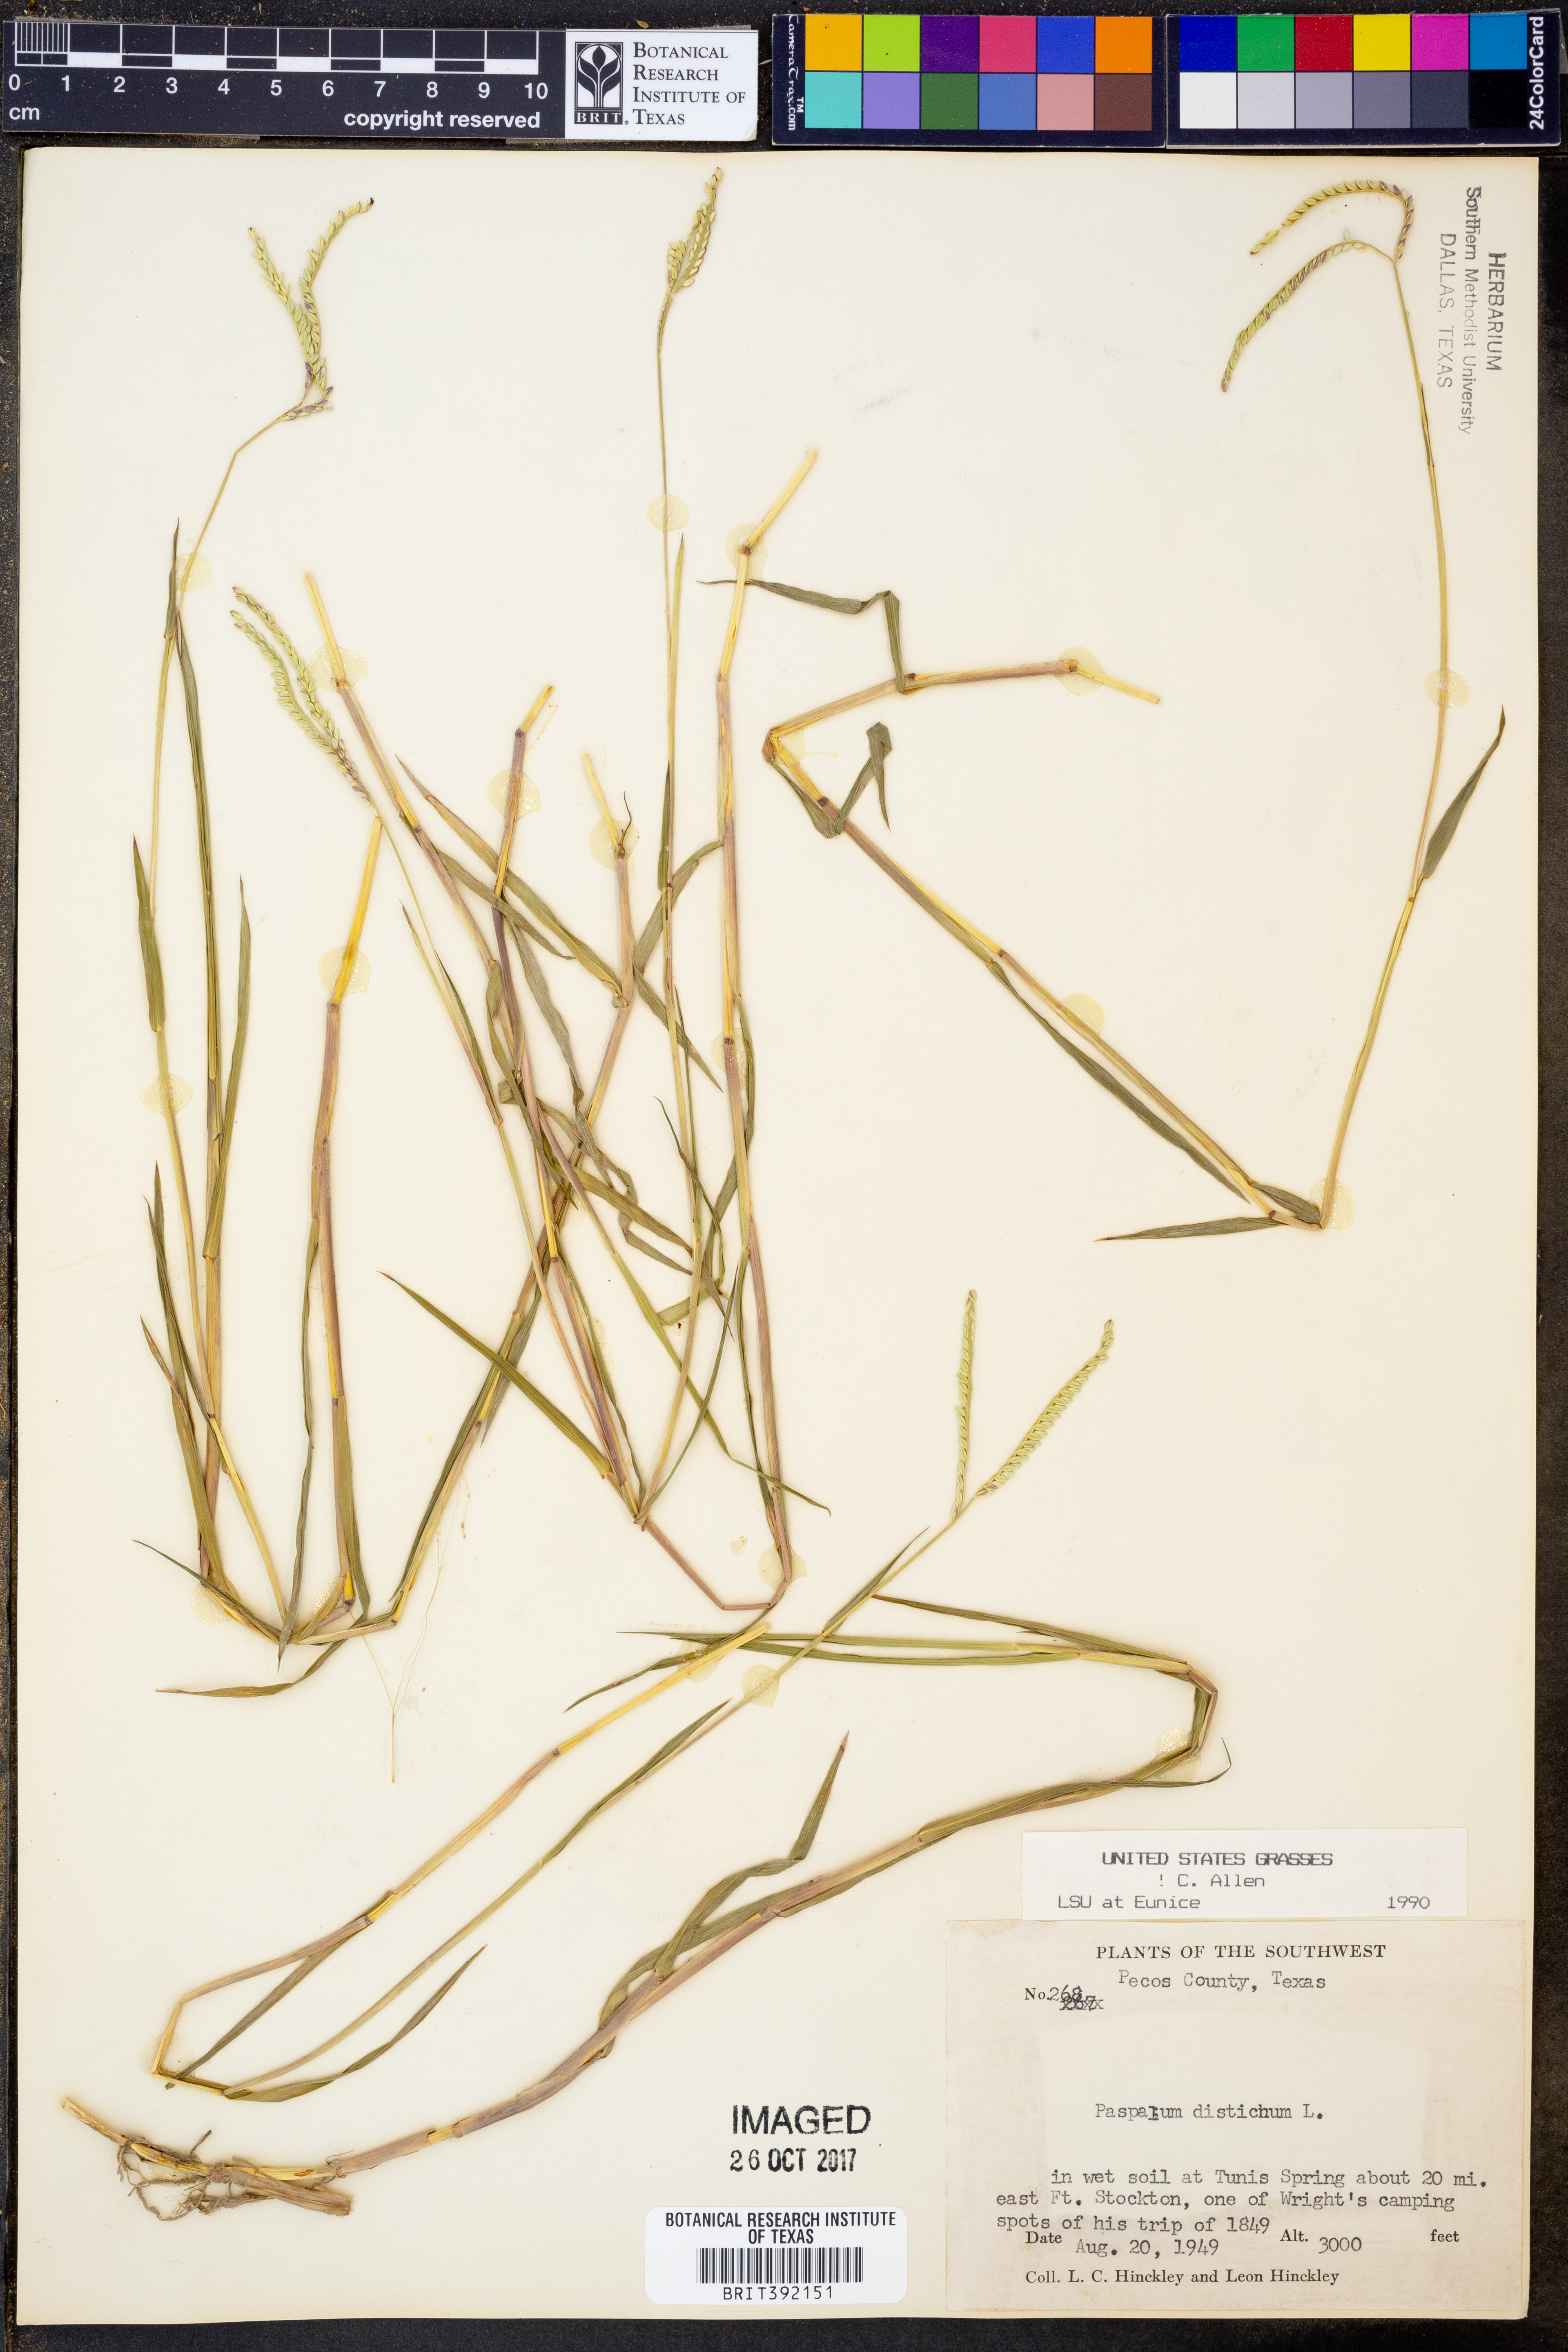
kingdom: Plantae
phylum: Tracheophyta
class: Liliopsida
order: Poales
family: Poaceae
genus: Paspalum
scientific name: Paspalum distichum
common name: Knotgrass
